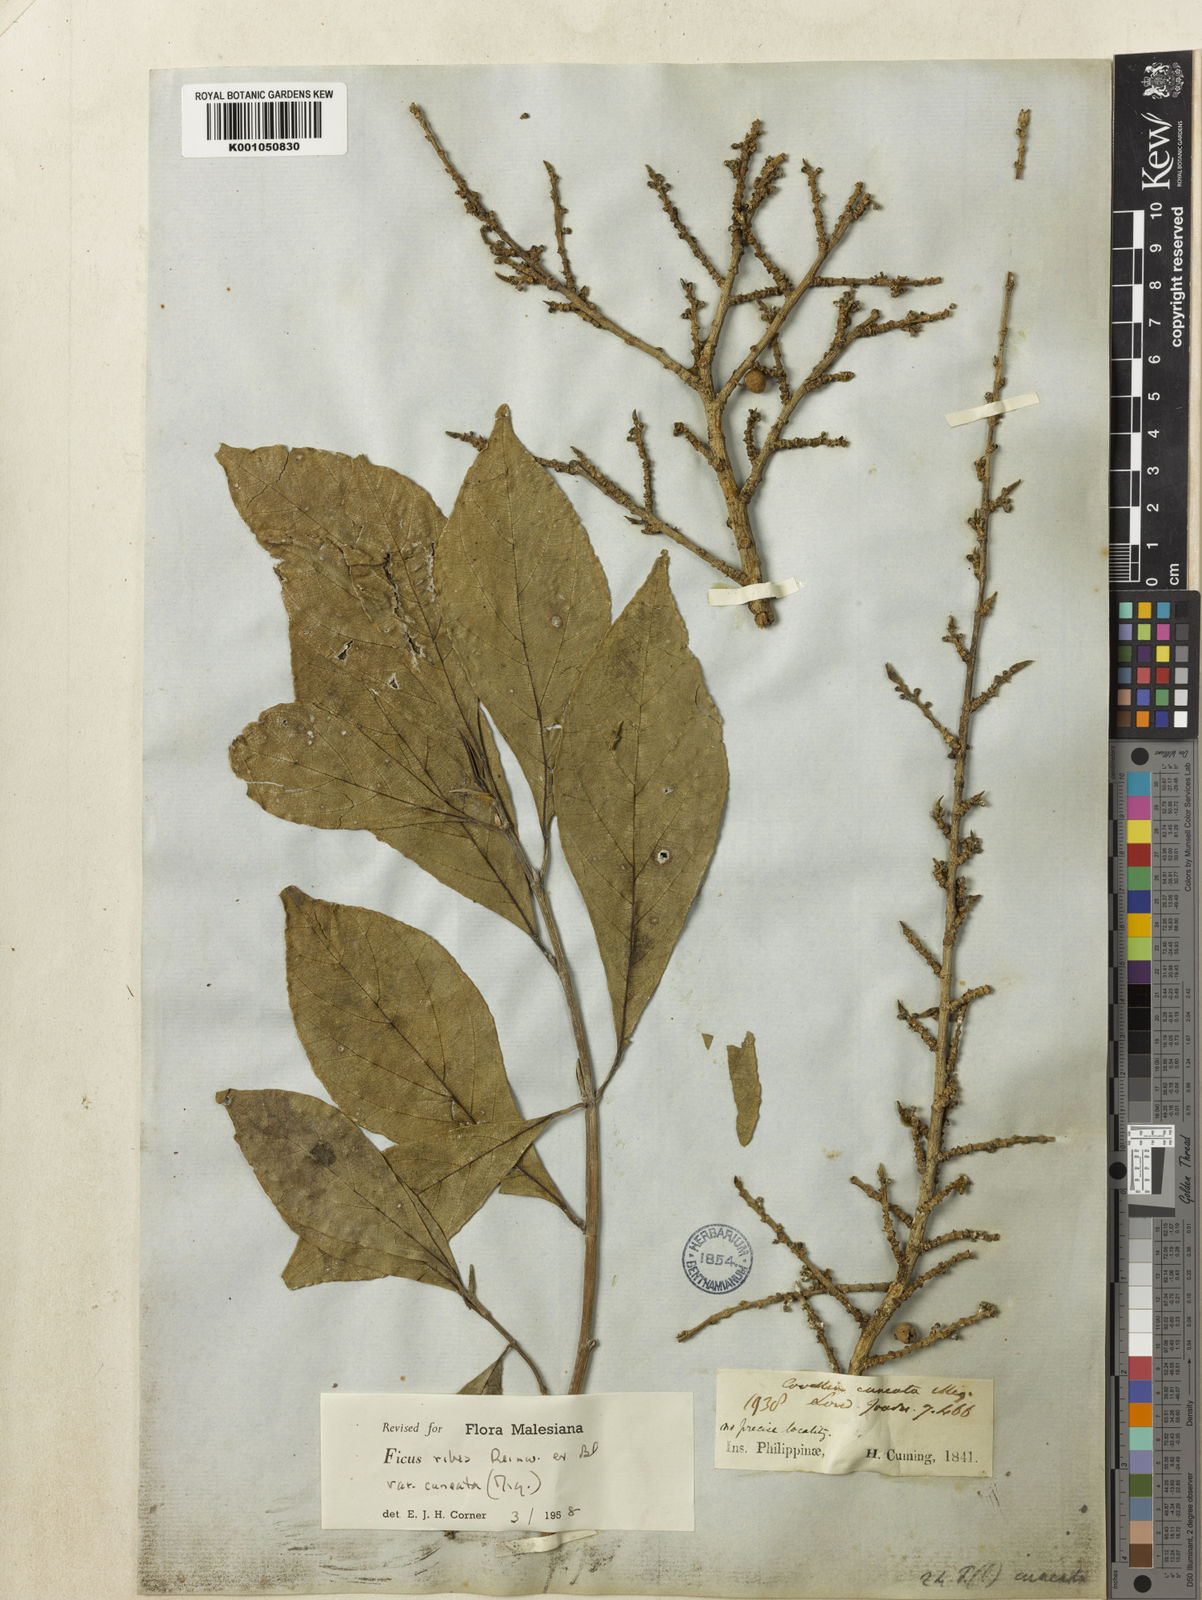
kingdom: Plantae
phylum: Tracheophyta
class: Magnoliopsida
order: Rosales
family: Moraceae
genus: Ficus
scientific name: Ficus
